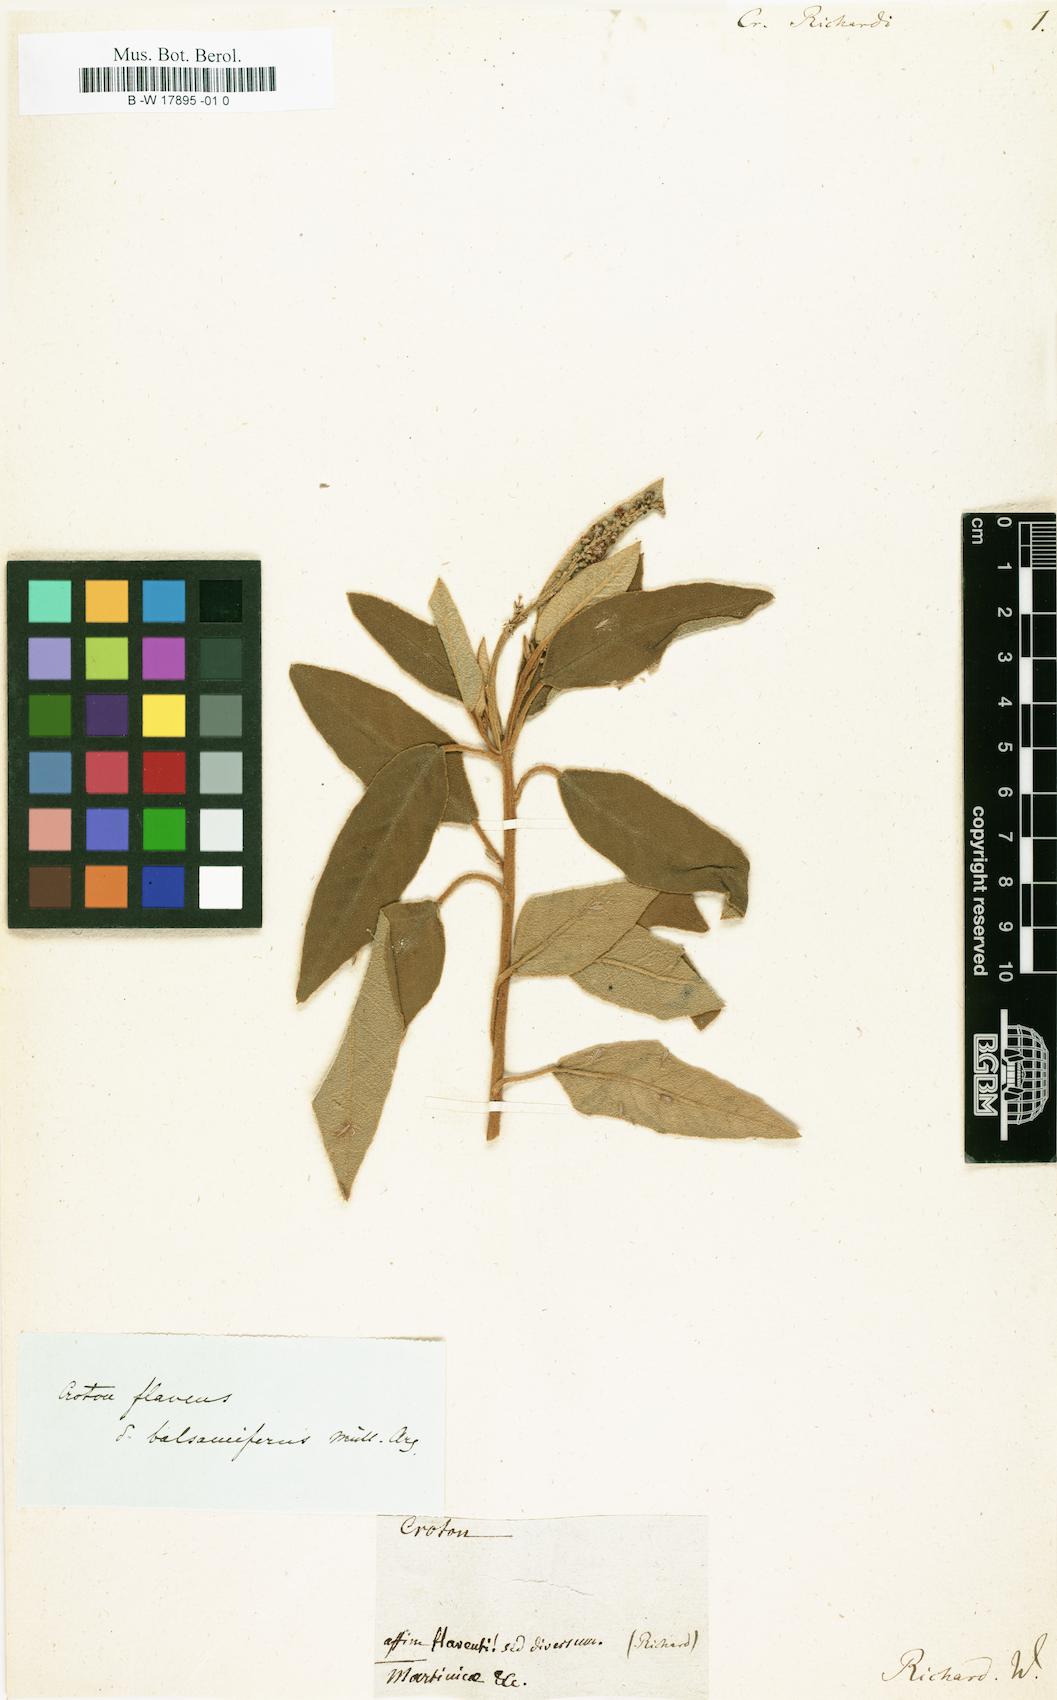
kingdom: Plantae
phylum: Tracheophyta
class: Magnoliopsida
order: Malpighiales
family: Euphorbiaceae
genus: Croton
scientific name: Croton flavens
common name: Yellow balsam
